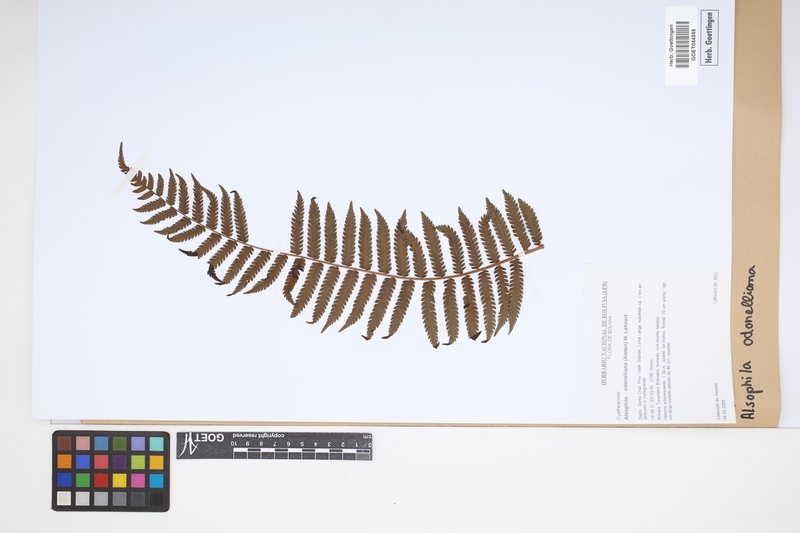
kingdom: Plantae
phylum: Tracheophyta
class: Polypodiopsida
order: Cyatheales
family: Cyatheaceae
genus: Alsophila
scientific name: Alsophila odonelliana
